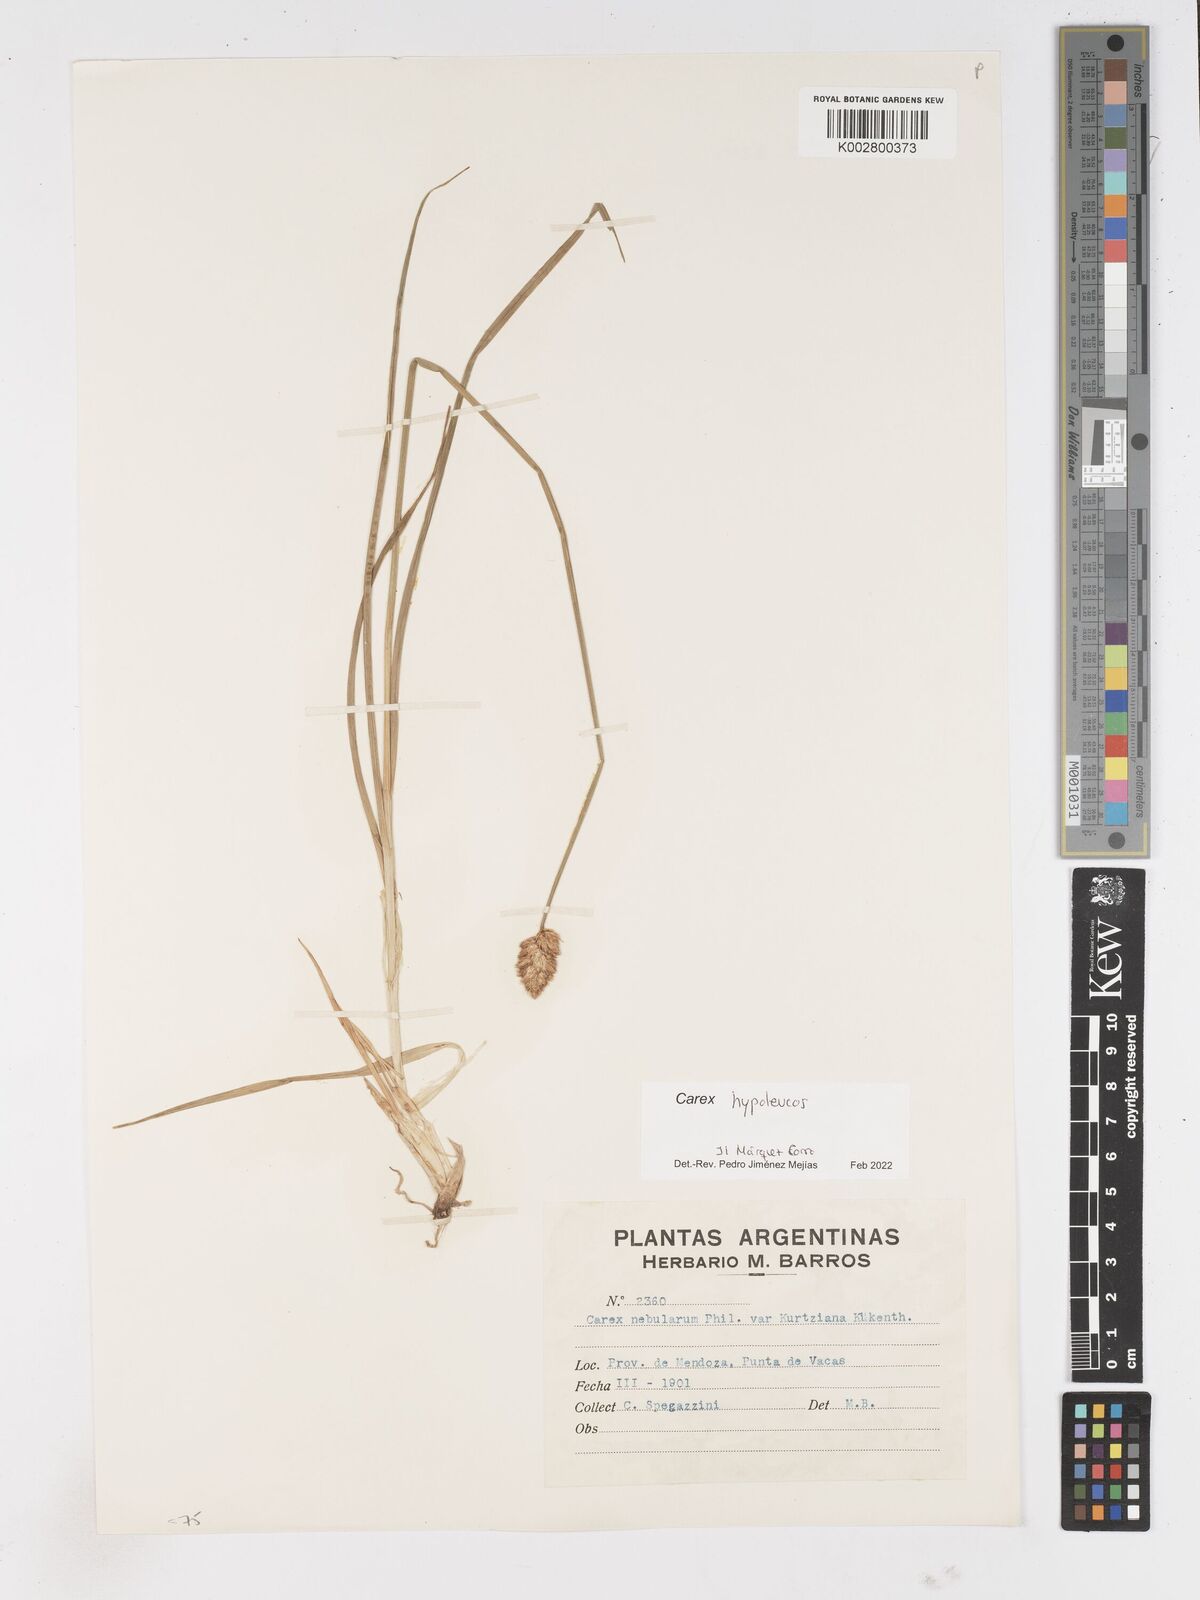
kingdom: Plantae
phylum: Tracheophyta
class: Liliopsida
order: Poales
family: Cyperaceae
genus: Carex
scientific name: Carex macrorrhiza
